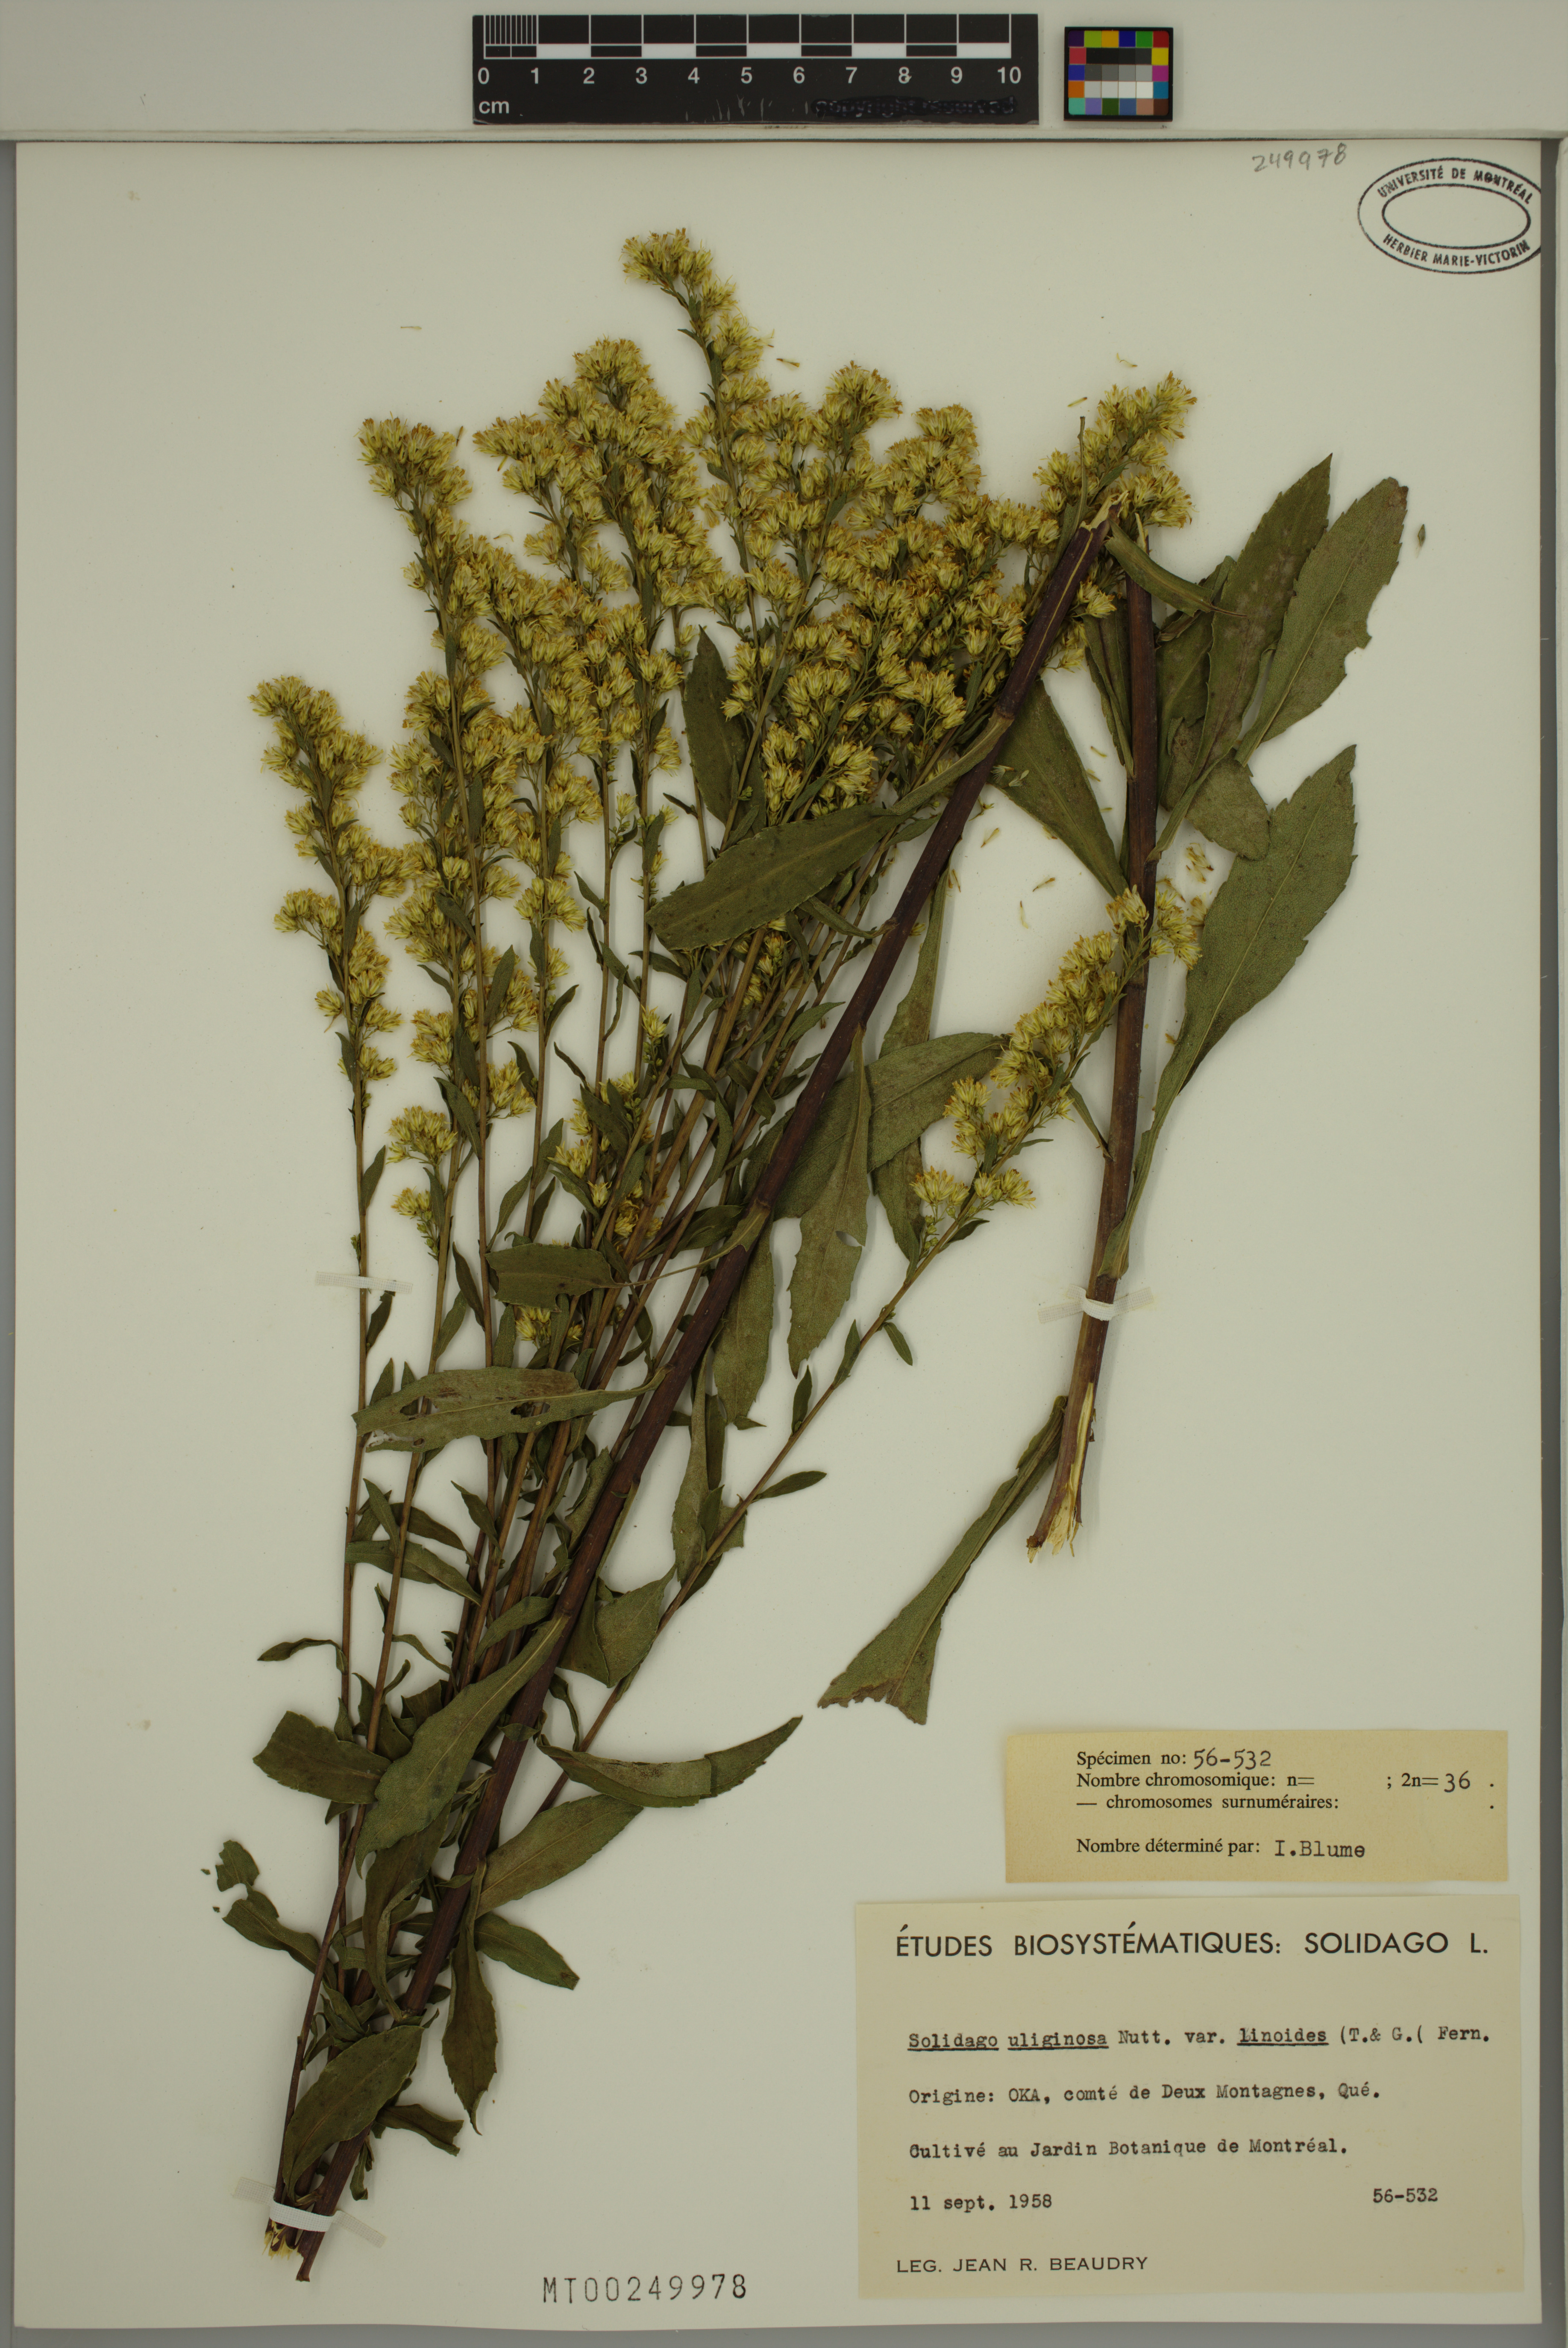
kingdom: Plantae
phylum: Tracheophyta
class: Magnoliopsida
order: Asterales
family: Asteraceae
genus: Solidago
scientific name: Solidago uliginosa
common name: Bog goldenrod
